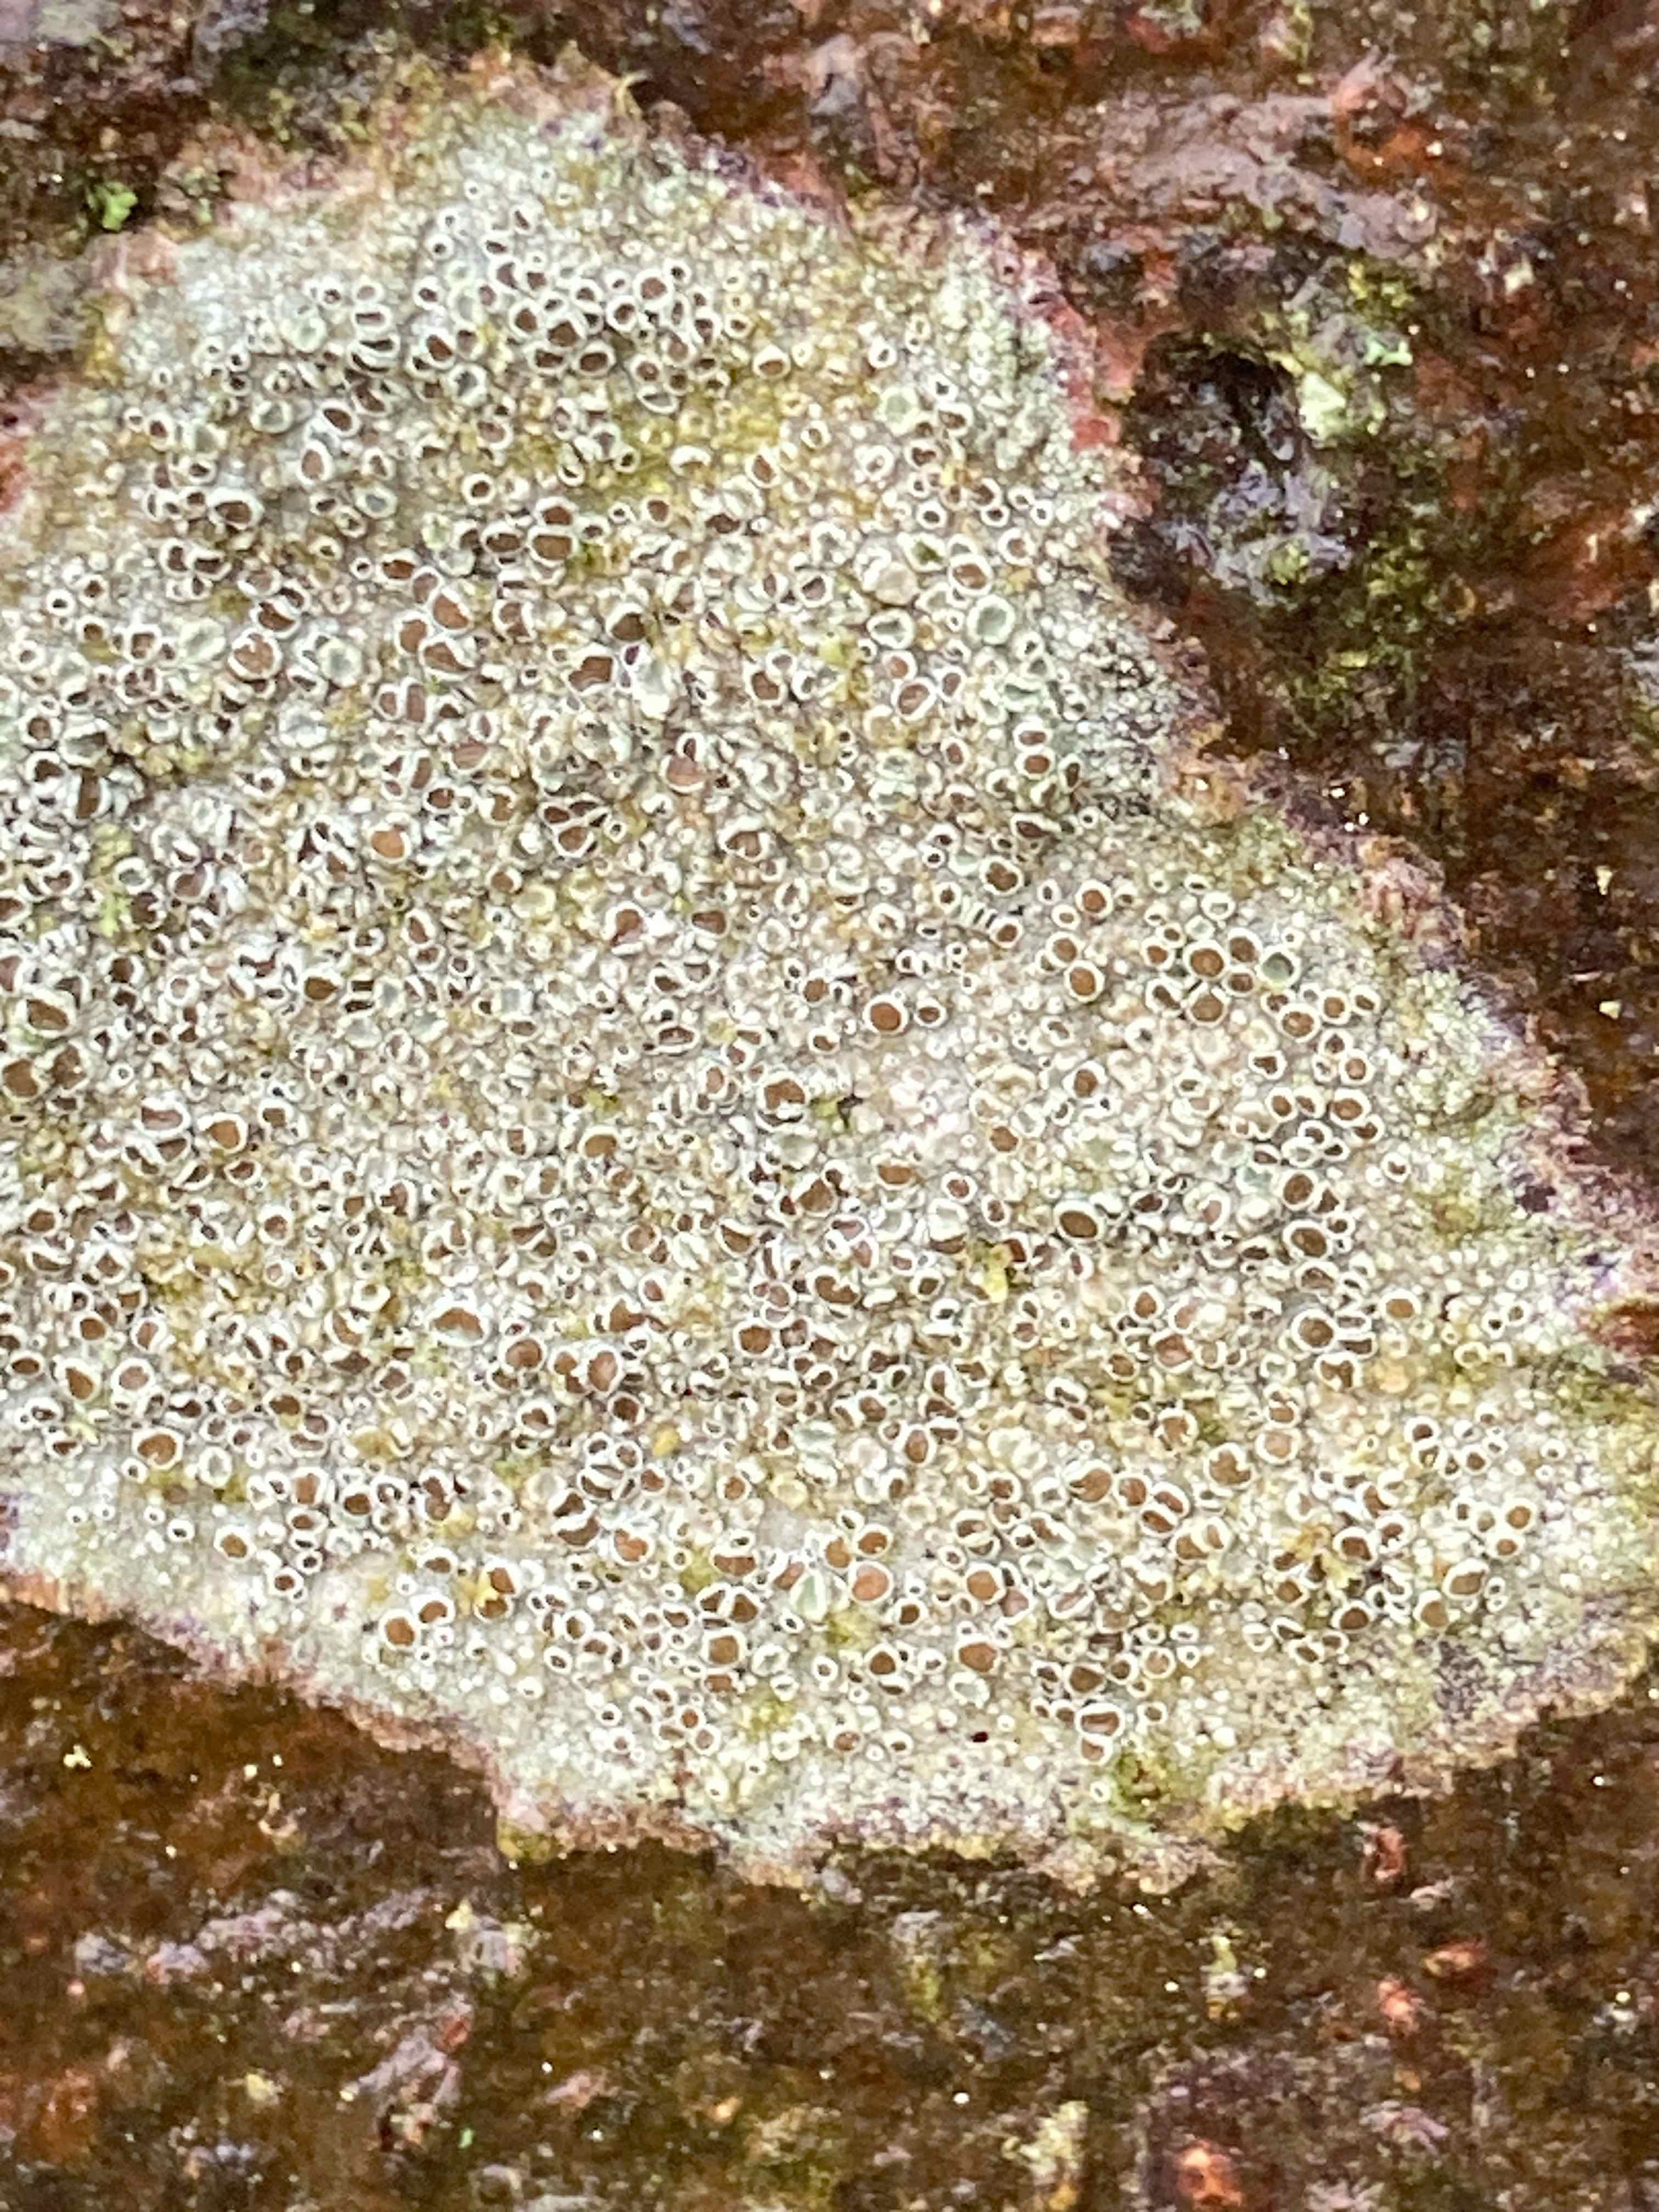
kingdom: Fungi
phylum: Ascomycota
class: Lecanoromycetes
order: Lecanorales
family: Lecanoraceae
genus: Lecanora
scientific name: Lecanora chlarotera
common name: brun kantskivelav
